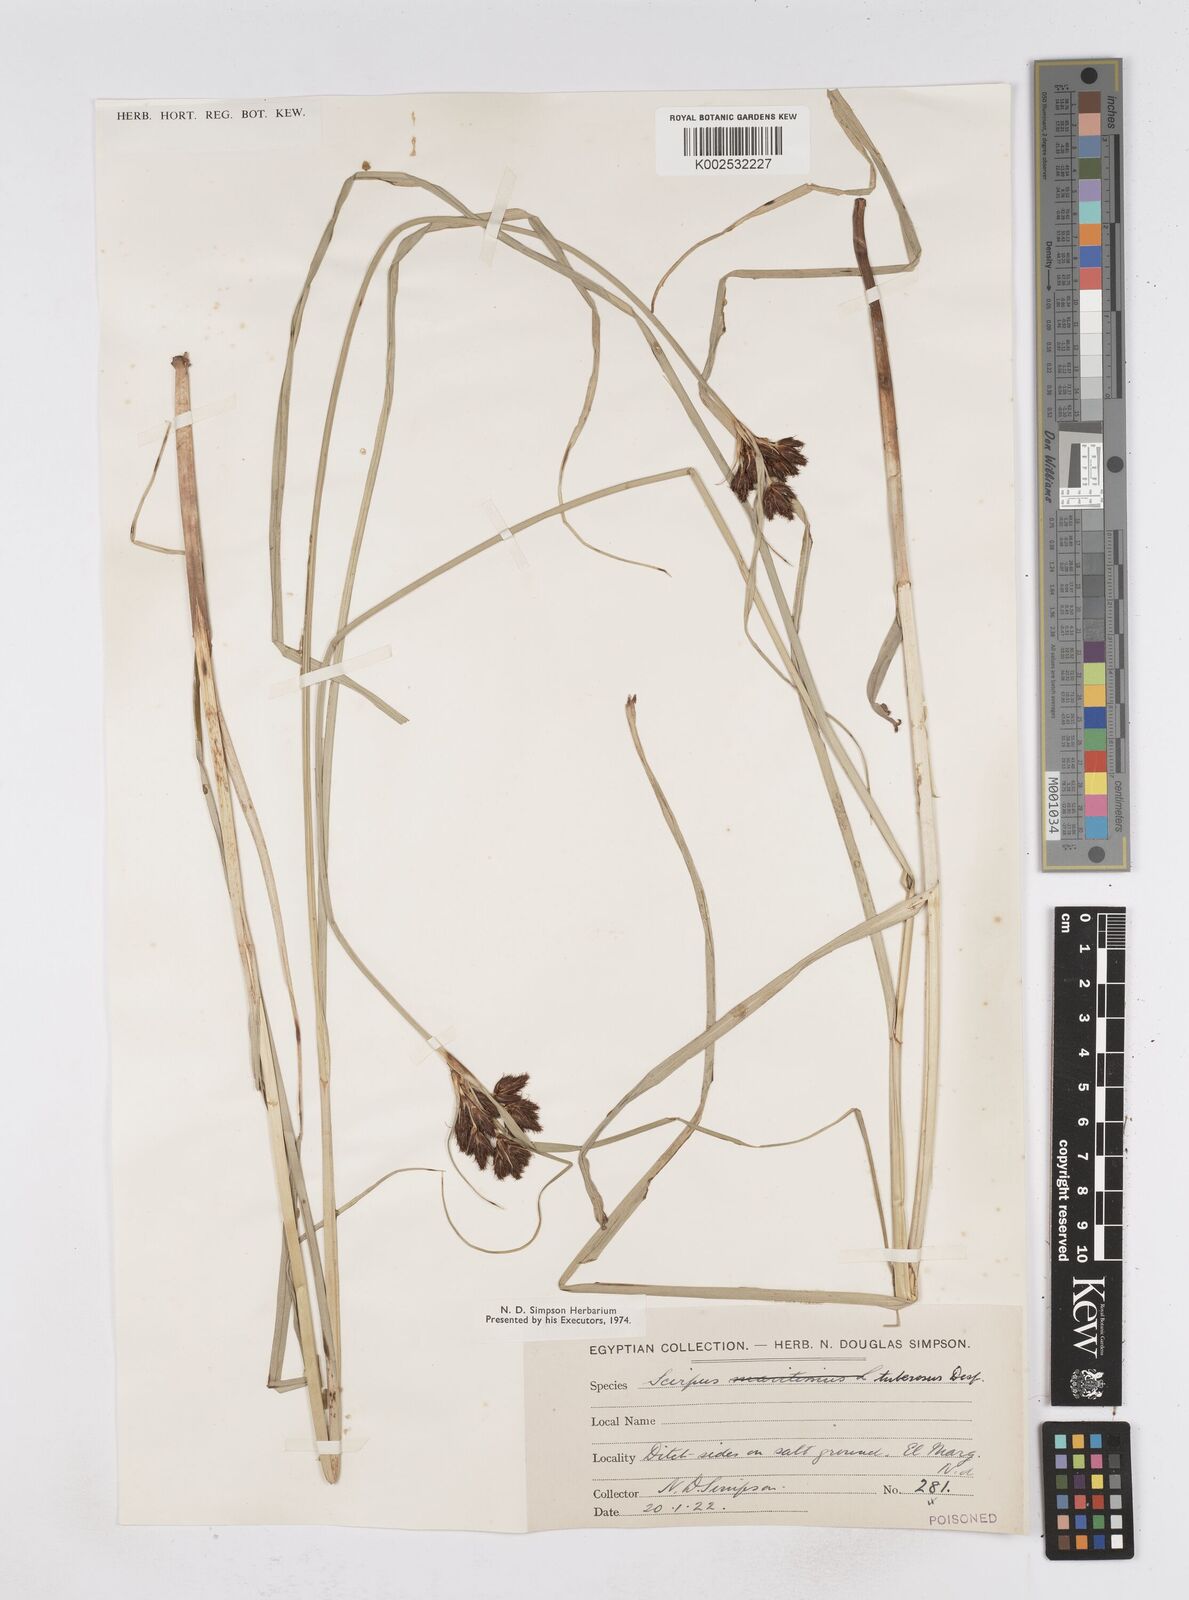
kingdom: Plantae
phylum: Tracheophyta
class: Liliopsida
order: Poales
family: Cyperaceae
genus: Bolboschoenus
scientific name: Bolboschoenus maritimus
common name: Sea club-rush
